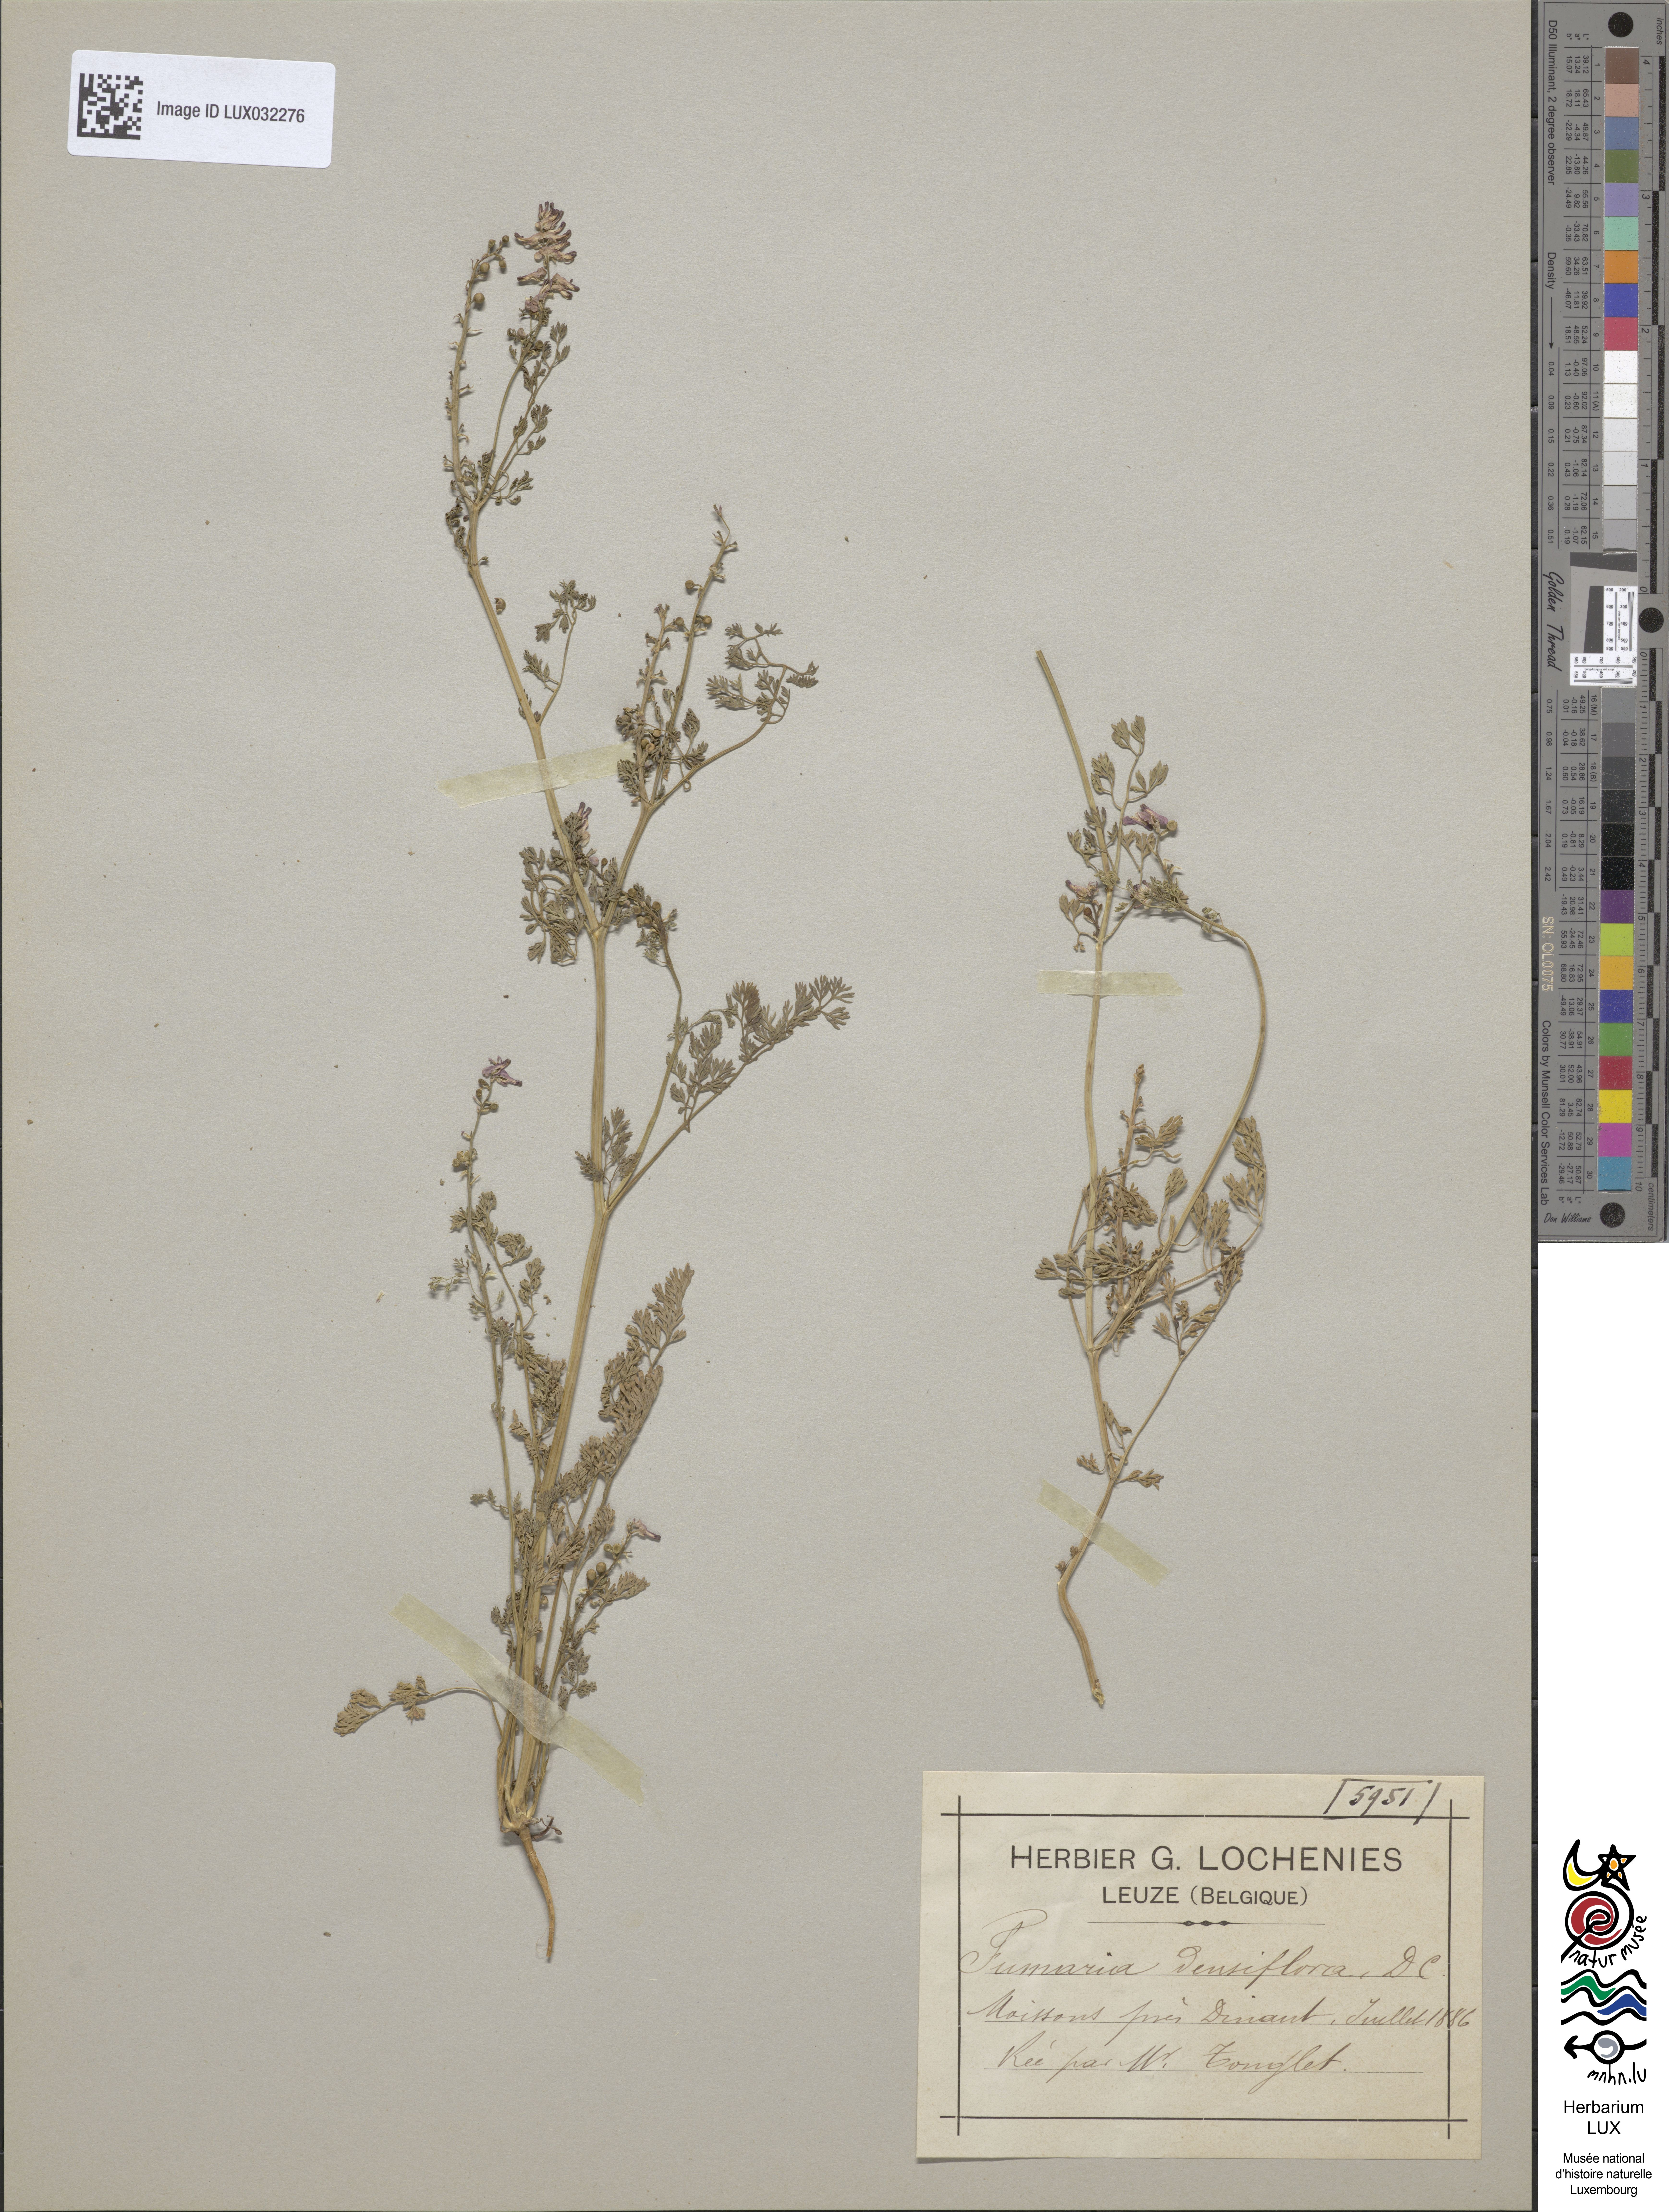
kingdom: Plantae
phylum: Tracheophyta
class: Magnoliopsida
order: Ranunculales
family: Papaveraceae
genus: Fumaria
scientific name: Fumaria densiflora
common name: Dense-flowered fumitory
